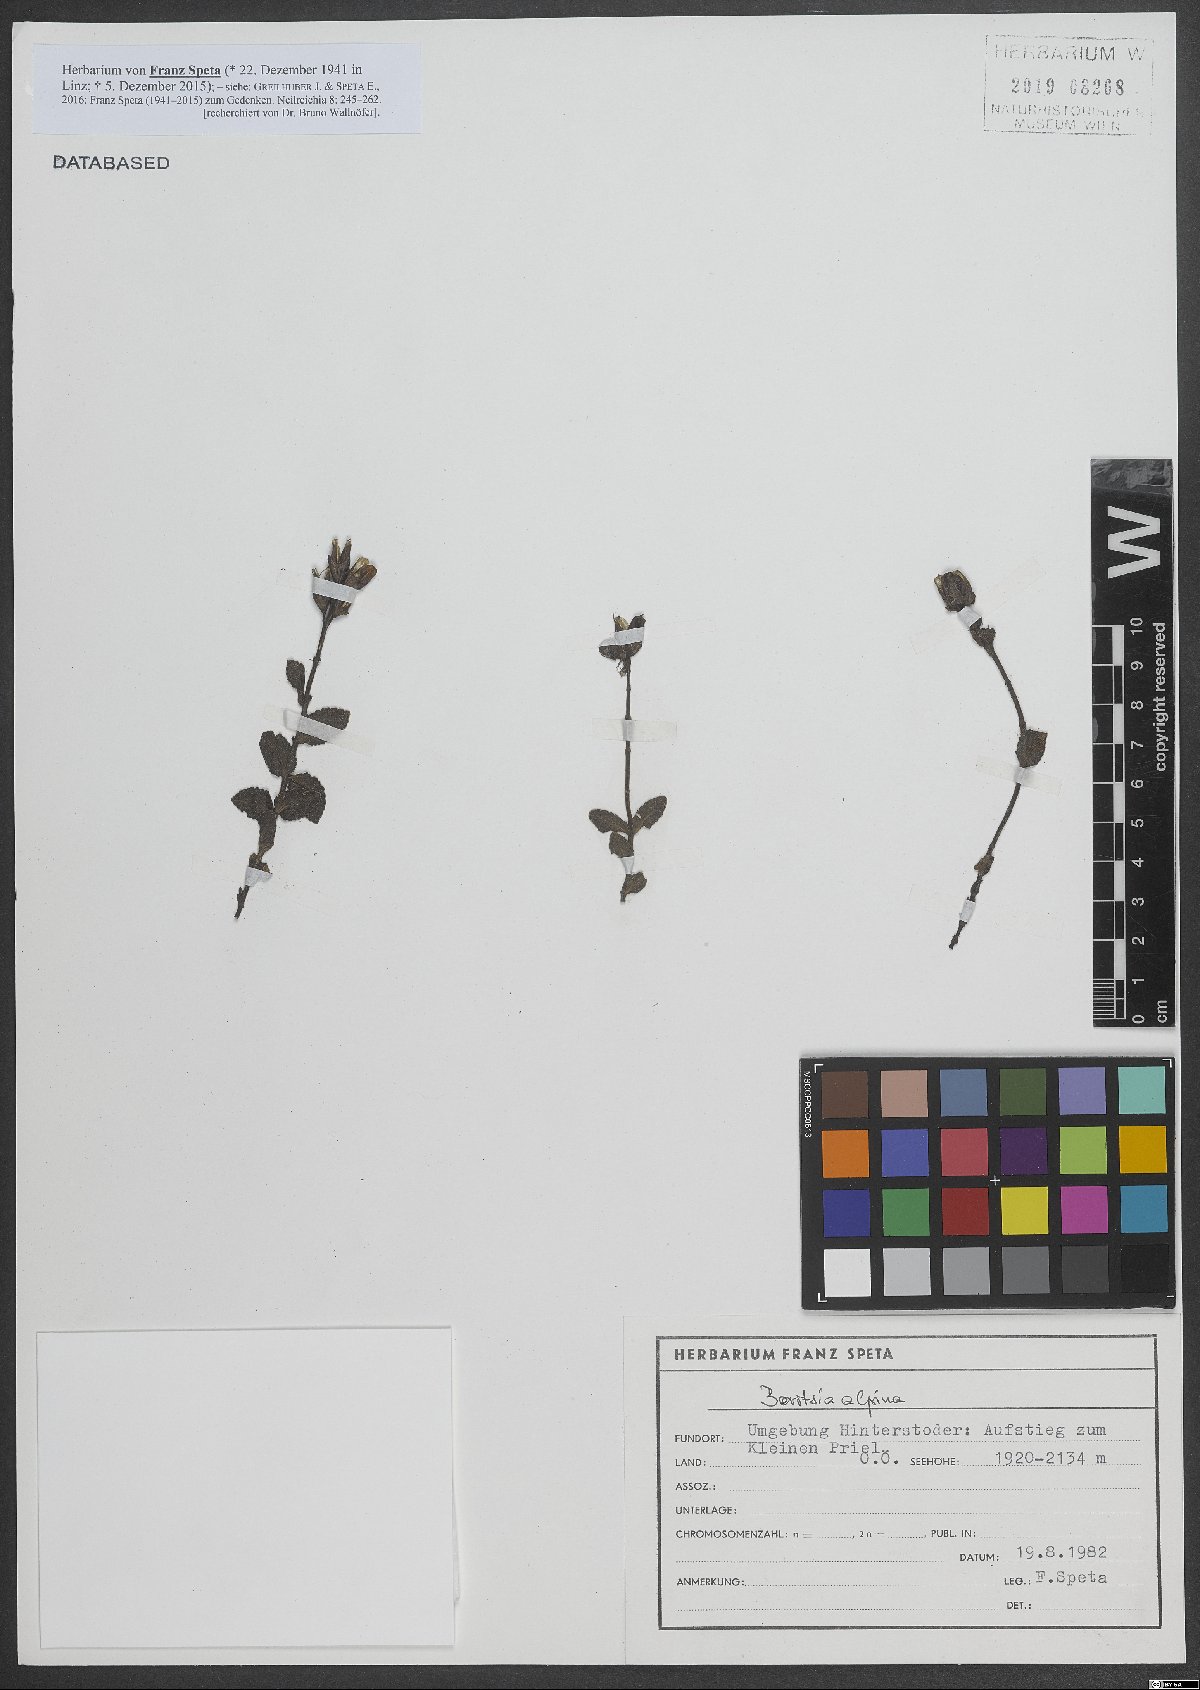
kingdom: Plantae
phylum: Tracheophyta
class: Magnoliopsida
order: Lamiales
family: Orobanchaceae
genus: Bartsia
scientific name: Bartsia alpina
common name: Alpine bartsia
